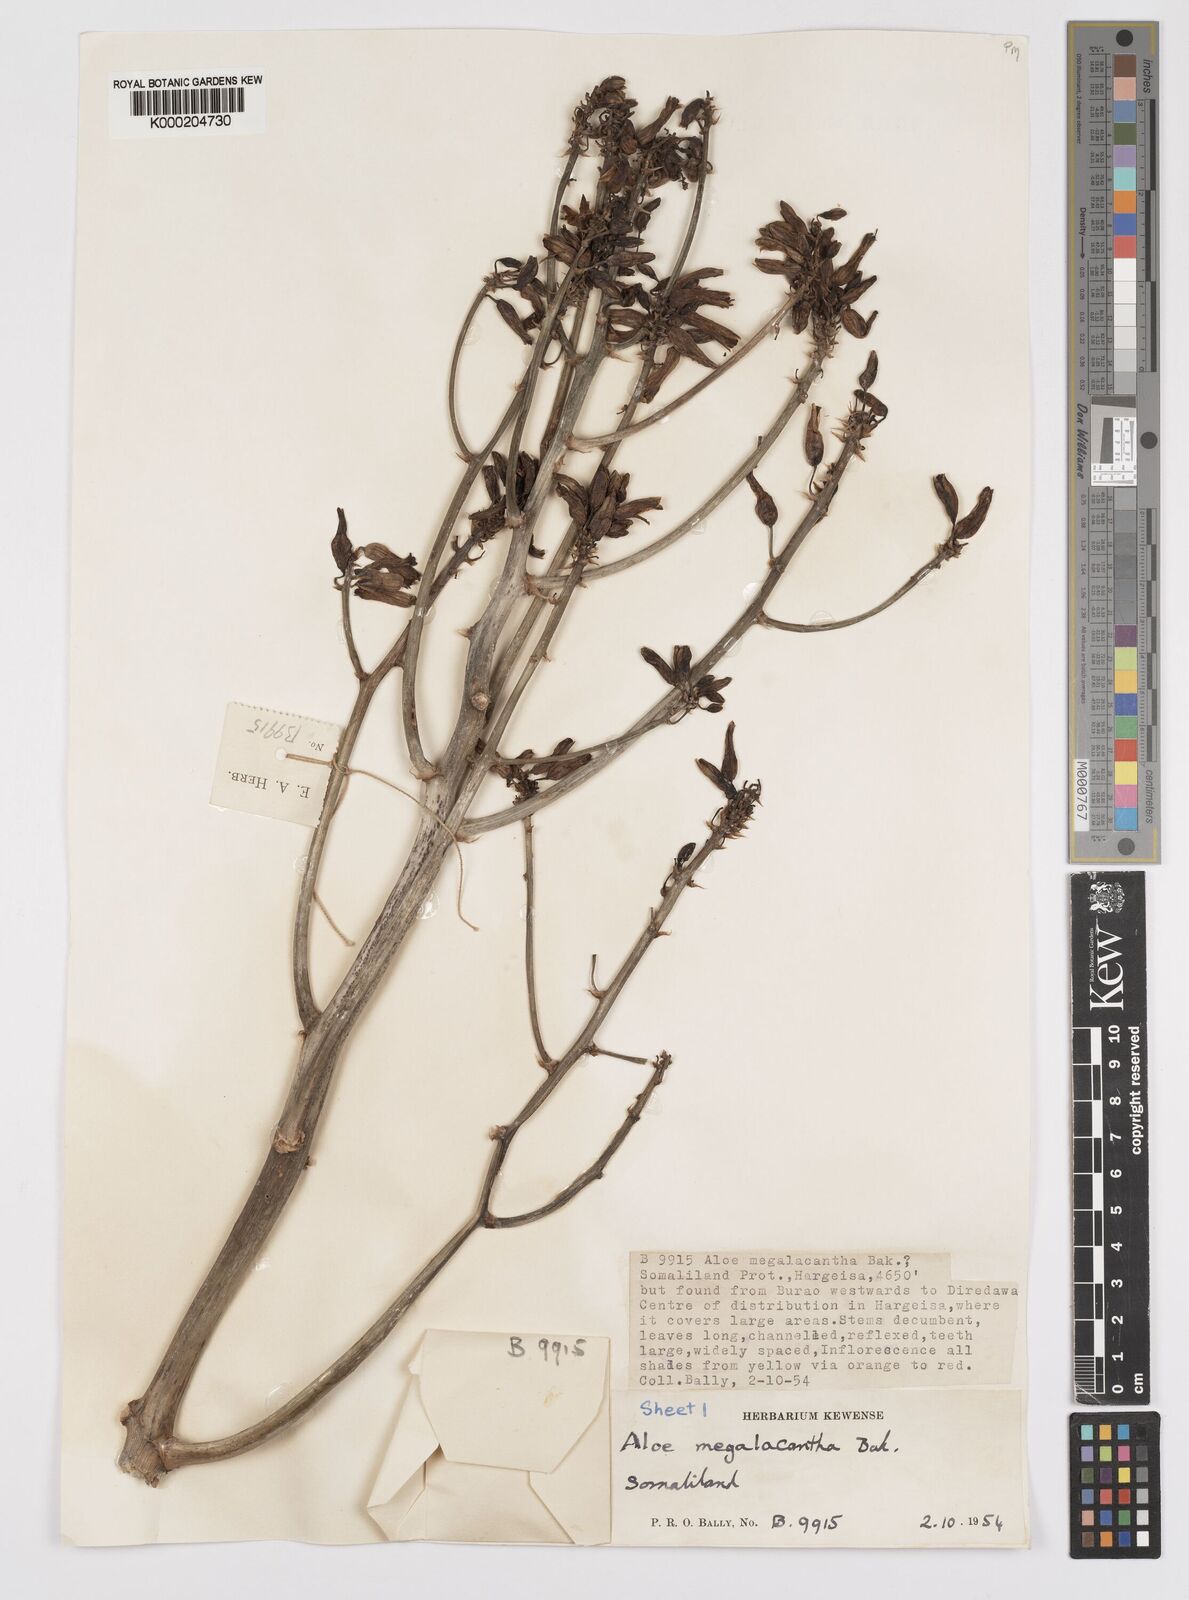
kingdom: Plantae
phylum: Tracheophyta
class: Liliopsida
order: Asparagales
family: Asphodelaceae
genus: Aloe
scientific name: Aloe megalacantha
